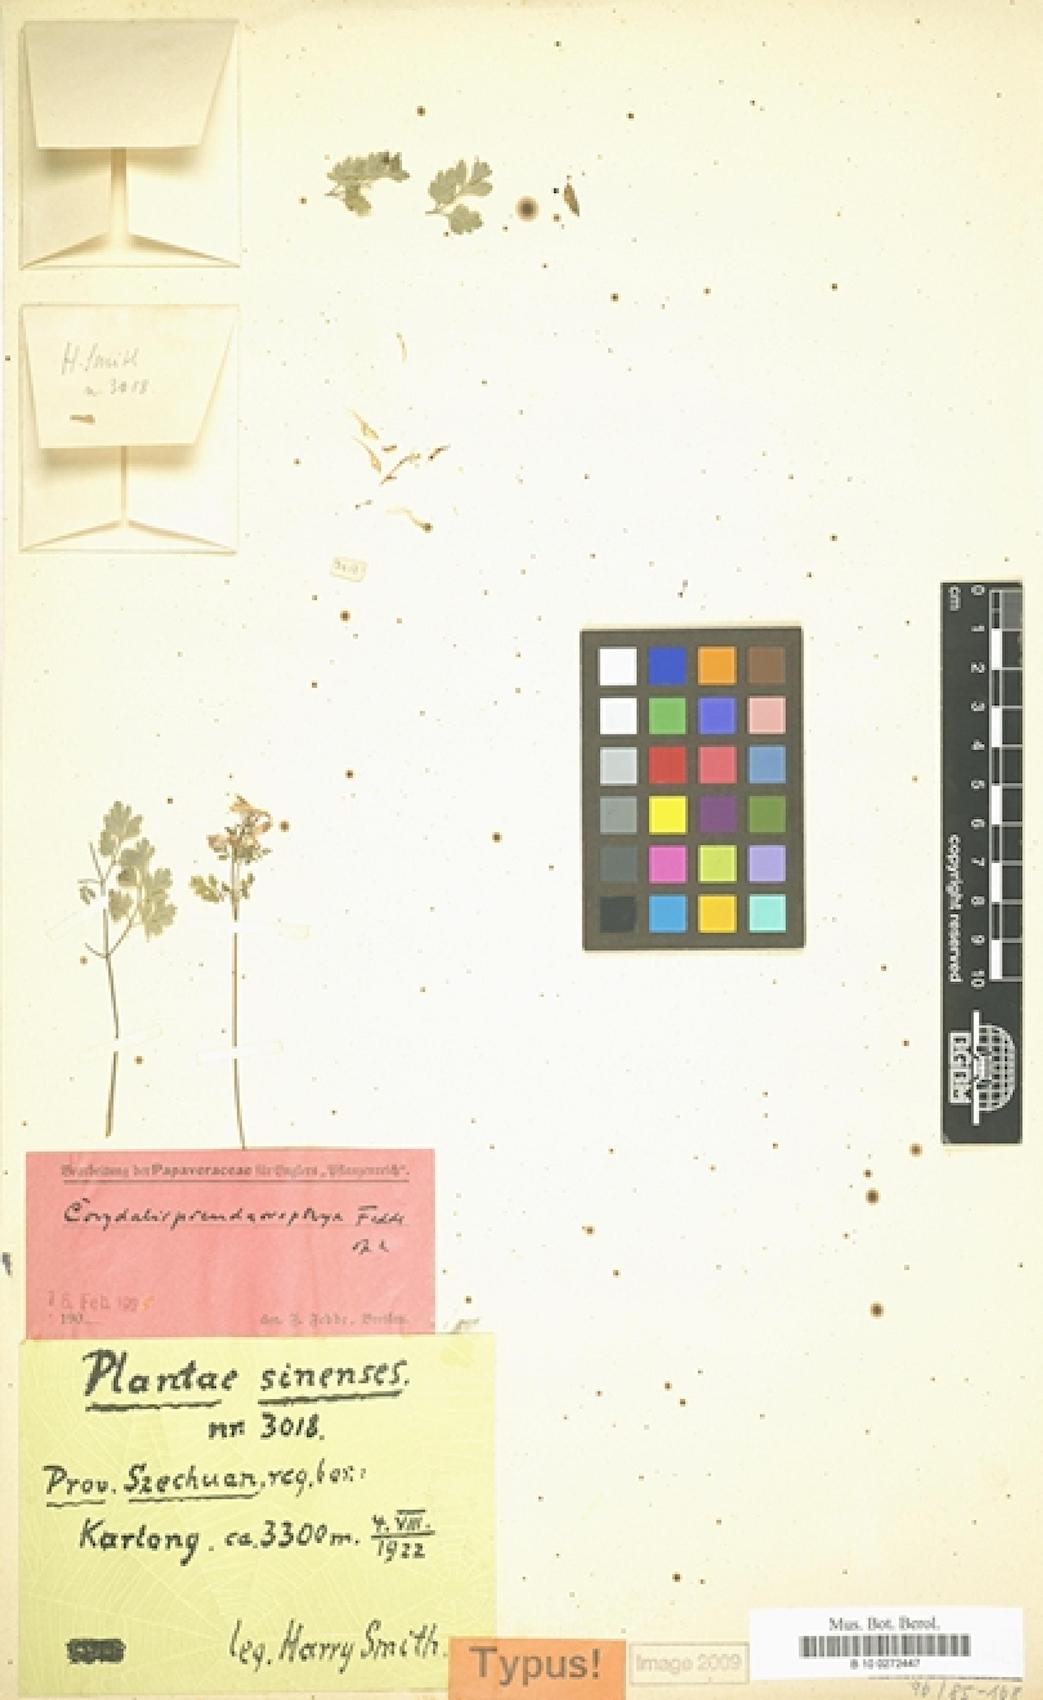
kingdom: Plantae
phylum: Tracheophyta
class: Magnoliopsida
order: Ranunculales
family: Papaveraceae
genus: Corydalis
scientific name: Corydalis acropteryx
